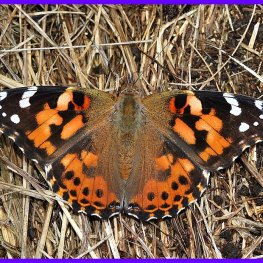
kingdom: Animalia
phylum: Arthropoda
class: Insecta
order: Lepidoptera
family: Nymphalidae
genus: Vanessa
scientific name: Vanessa cardui
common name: Painted Lady
